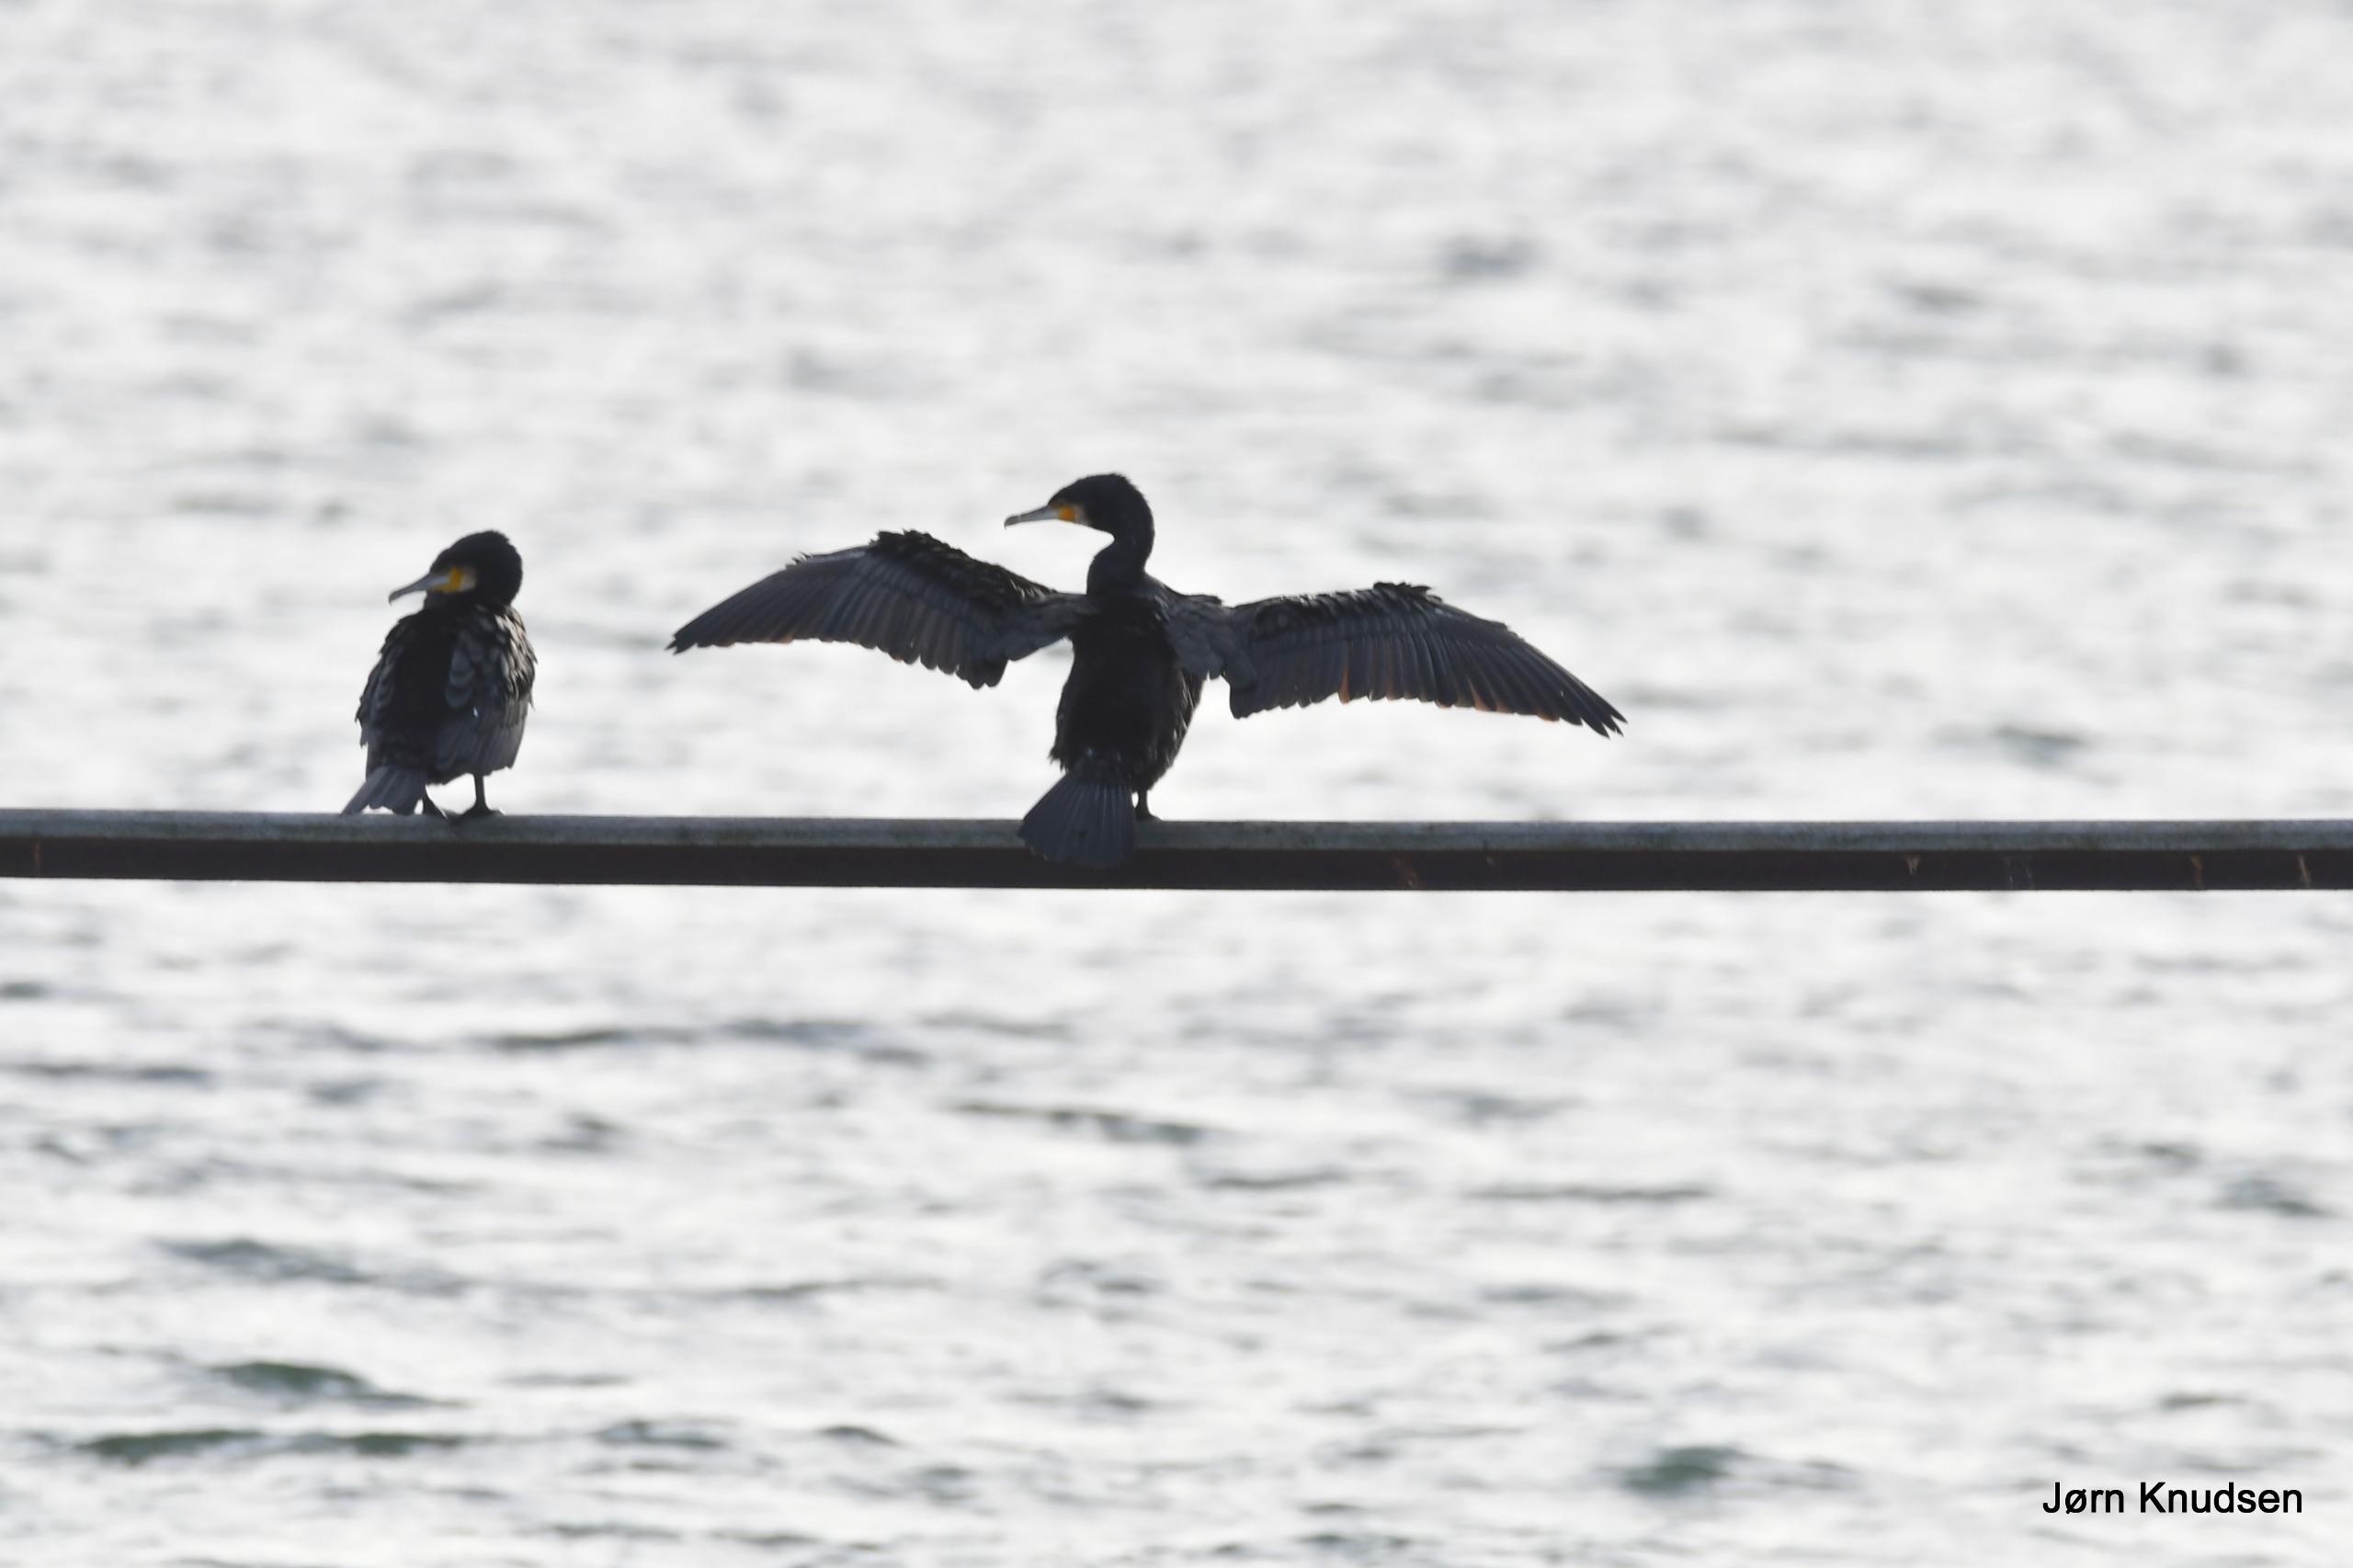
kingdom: Animalia
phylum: Chordata
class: Aves
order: Suliformes
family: Phalacrocoracidae
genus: Phalacrocorax
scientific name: Phalacrocorax carbo
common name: Skarv
